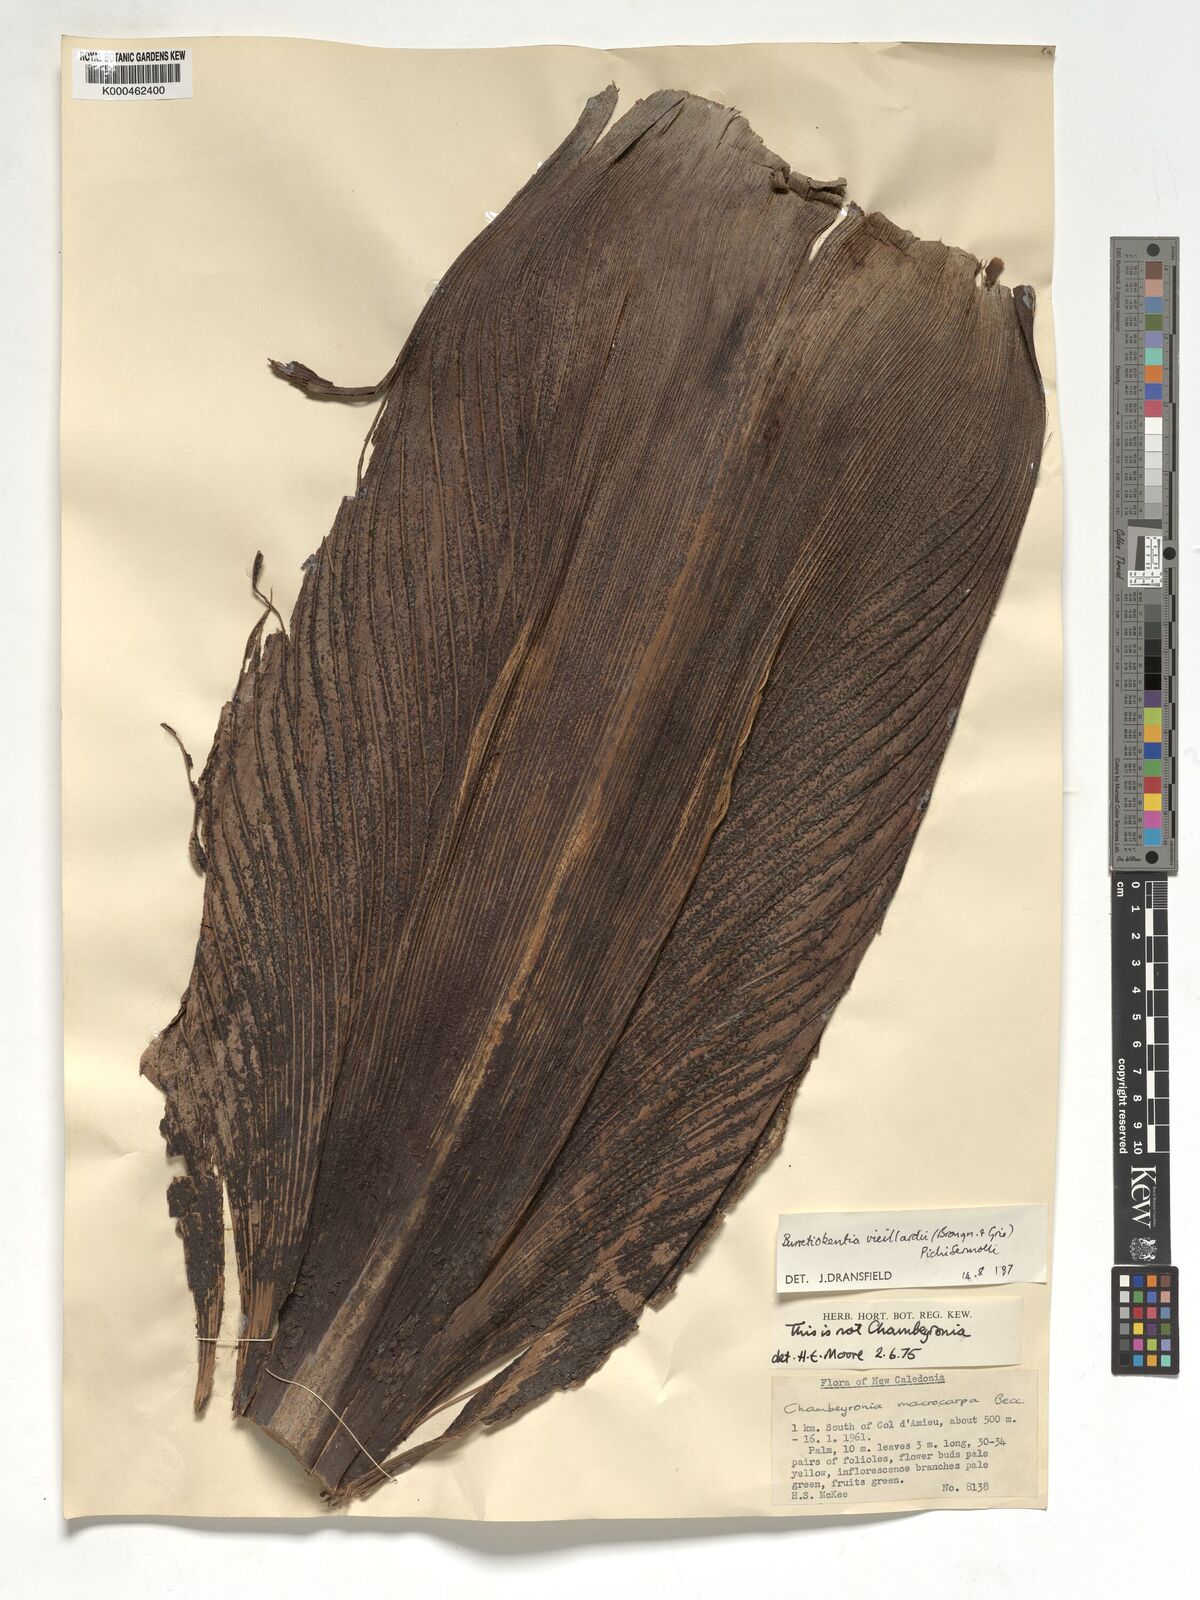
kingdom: Plantae
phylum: Tracheophyta
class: Liliopsida
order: Arecales
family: Arecaceae
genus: Burretiokentia
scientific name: Burretiokentia vieillardii
